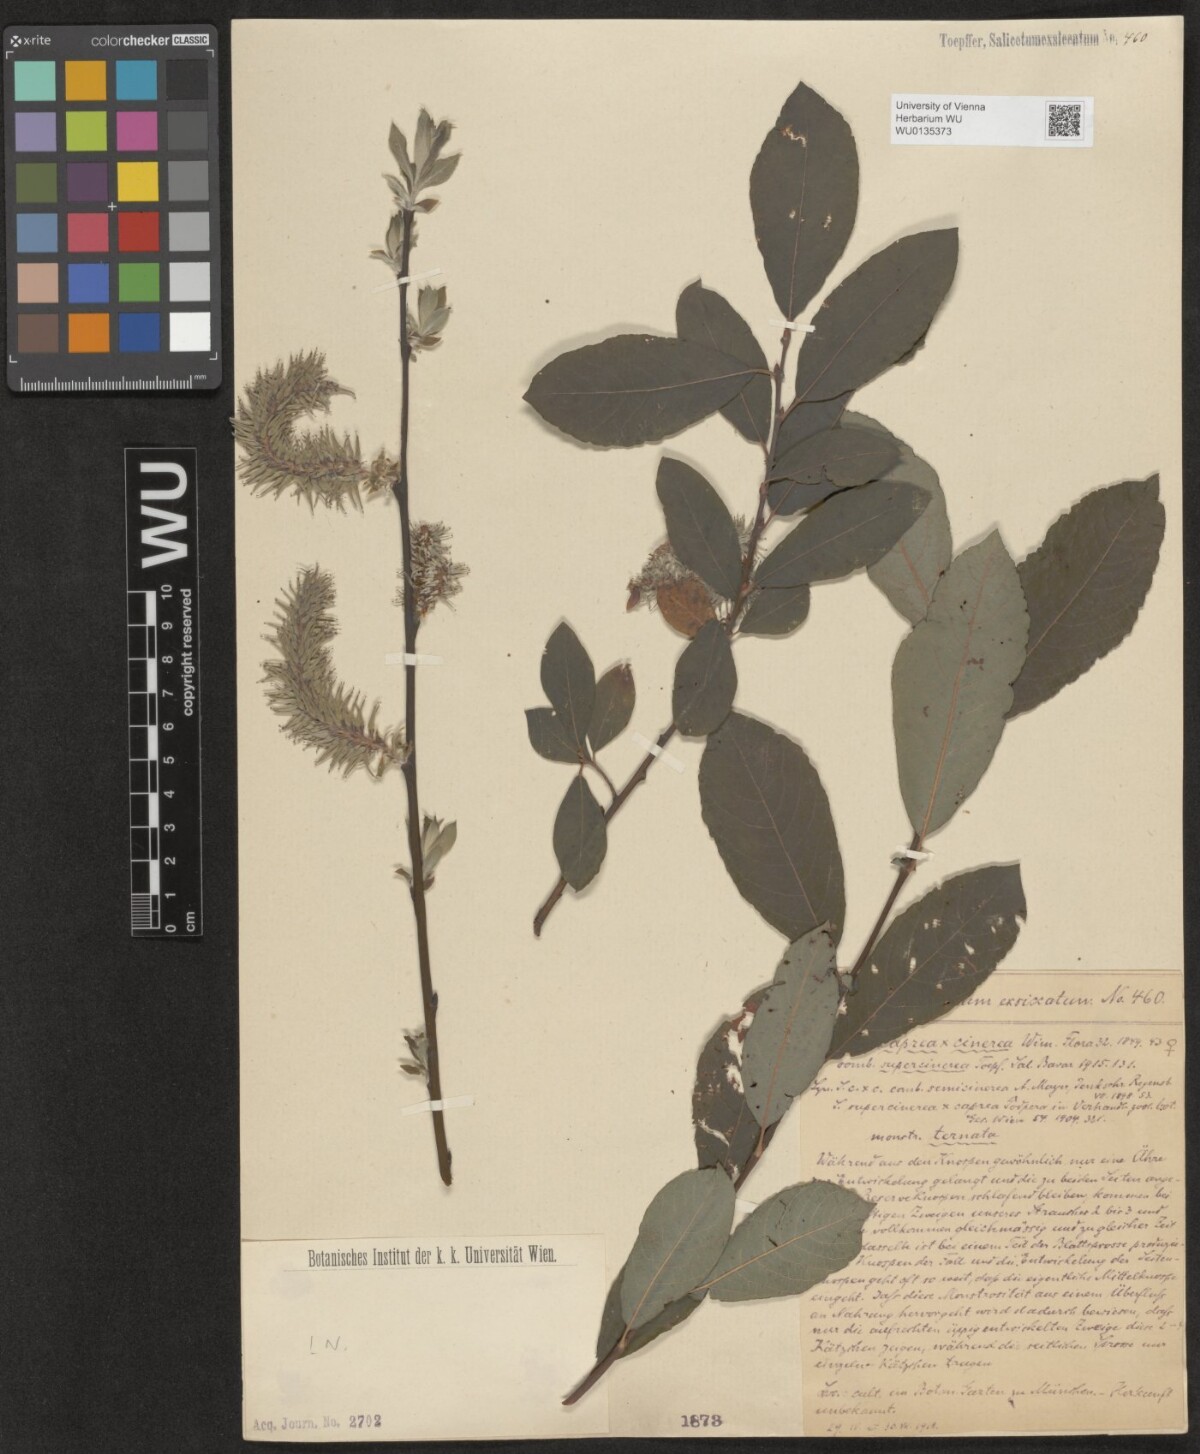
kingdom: Plantae
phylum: Tracheophyta
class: Magnoliopsida
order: Malpighiales
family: Salicaceae
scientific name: Salicaceae
